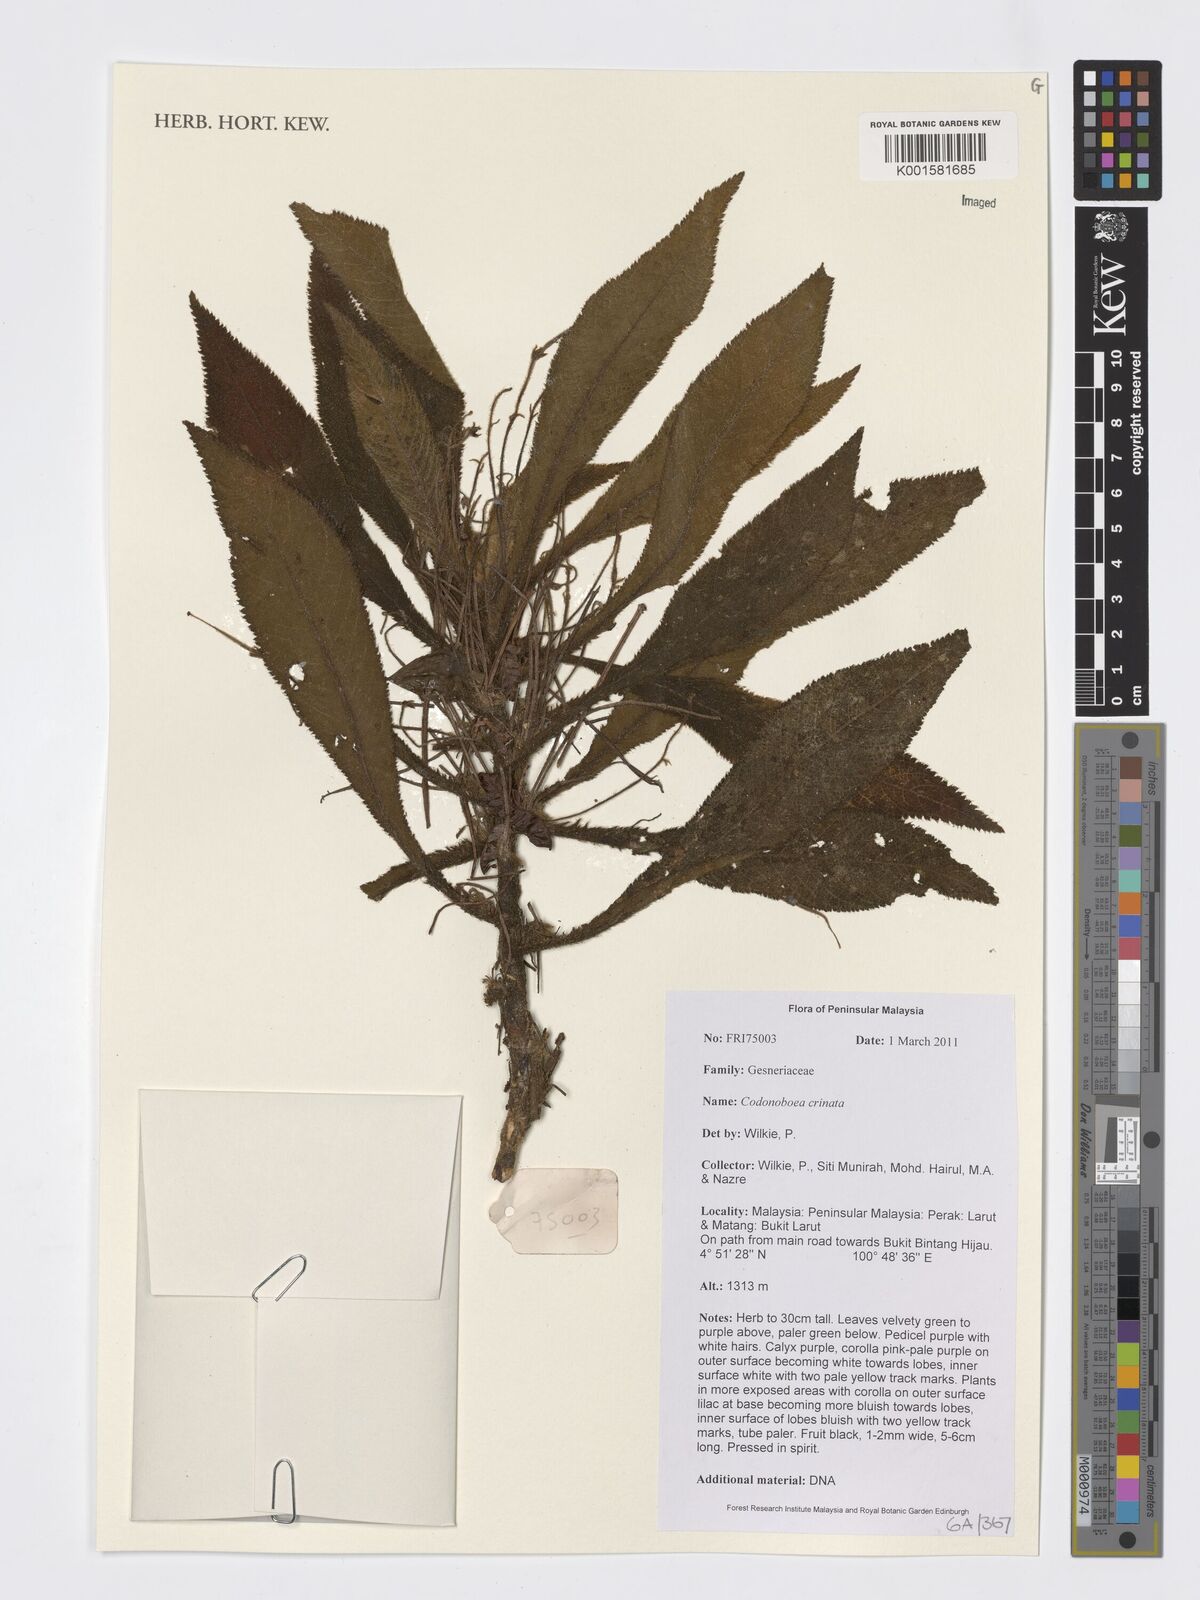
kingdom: Plantae
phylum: Tracheophyta
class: Magnoliopsida
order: Lamiales
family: Gesneriaceae
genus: Codonoboea
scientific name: Codonoboea crinita
